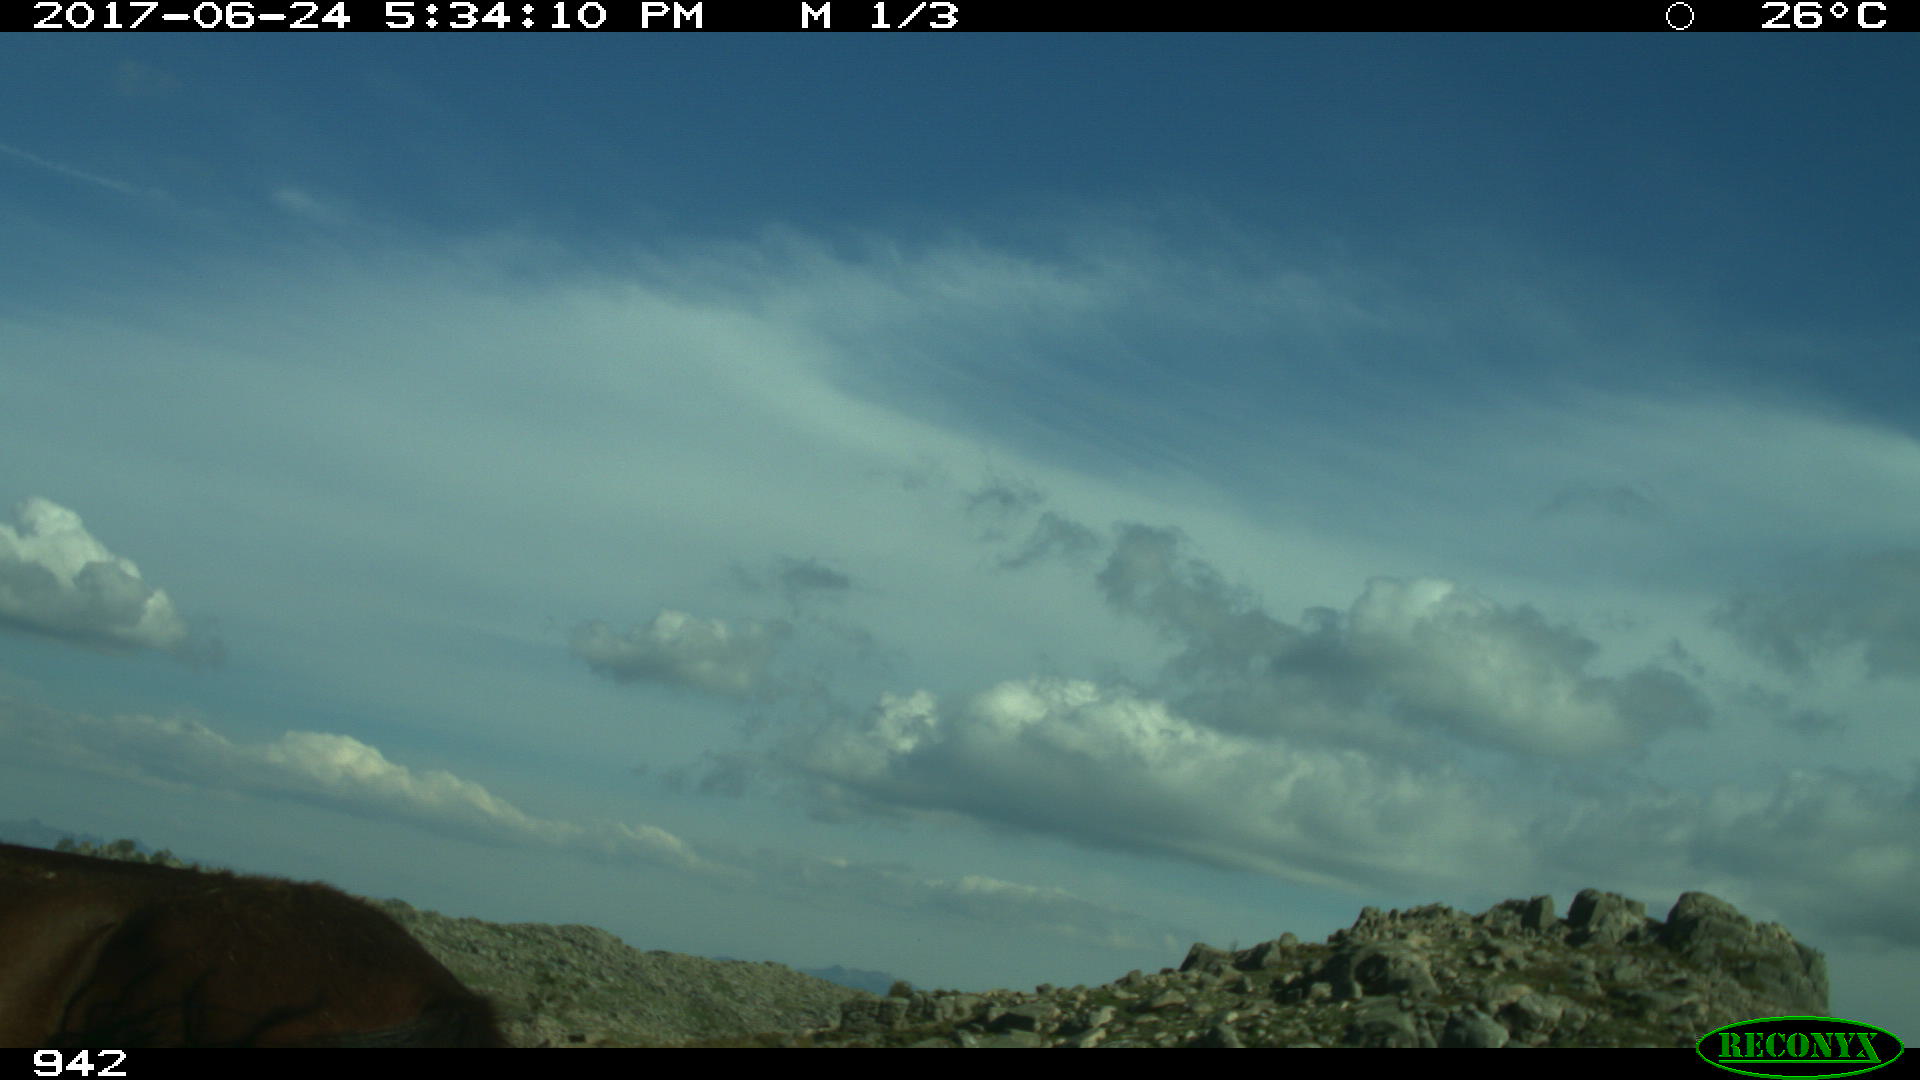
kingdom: Animalia
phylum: Chordata
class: Mammalia
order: Perissodactyla
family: Equidae
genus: Equus
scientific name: Equus caballus
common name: Horse
